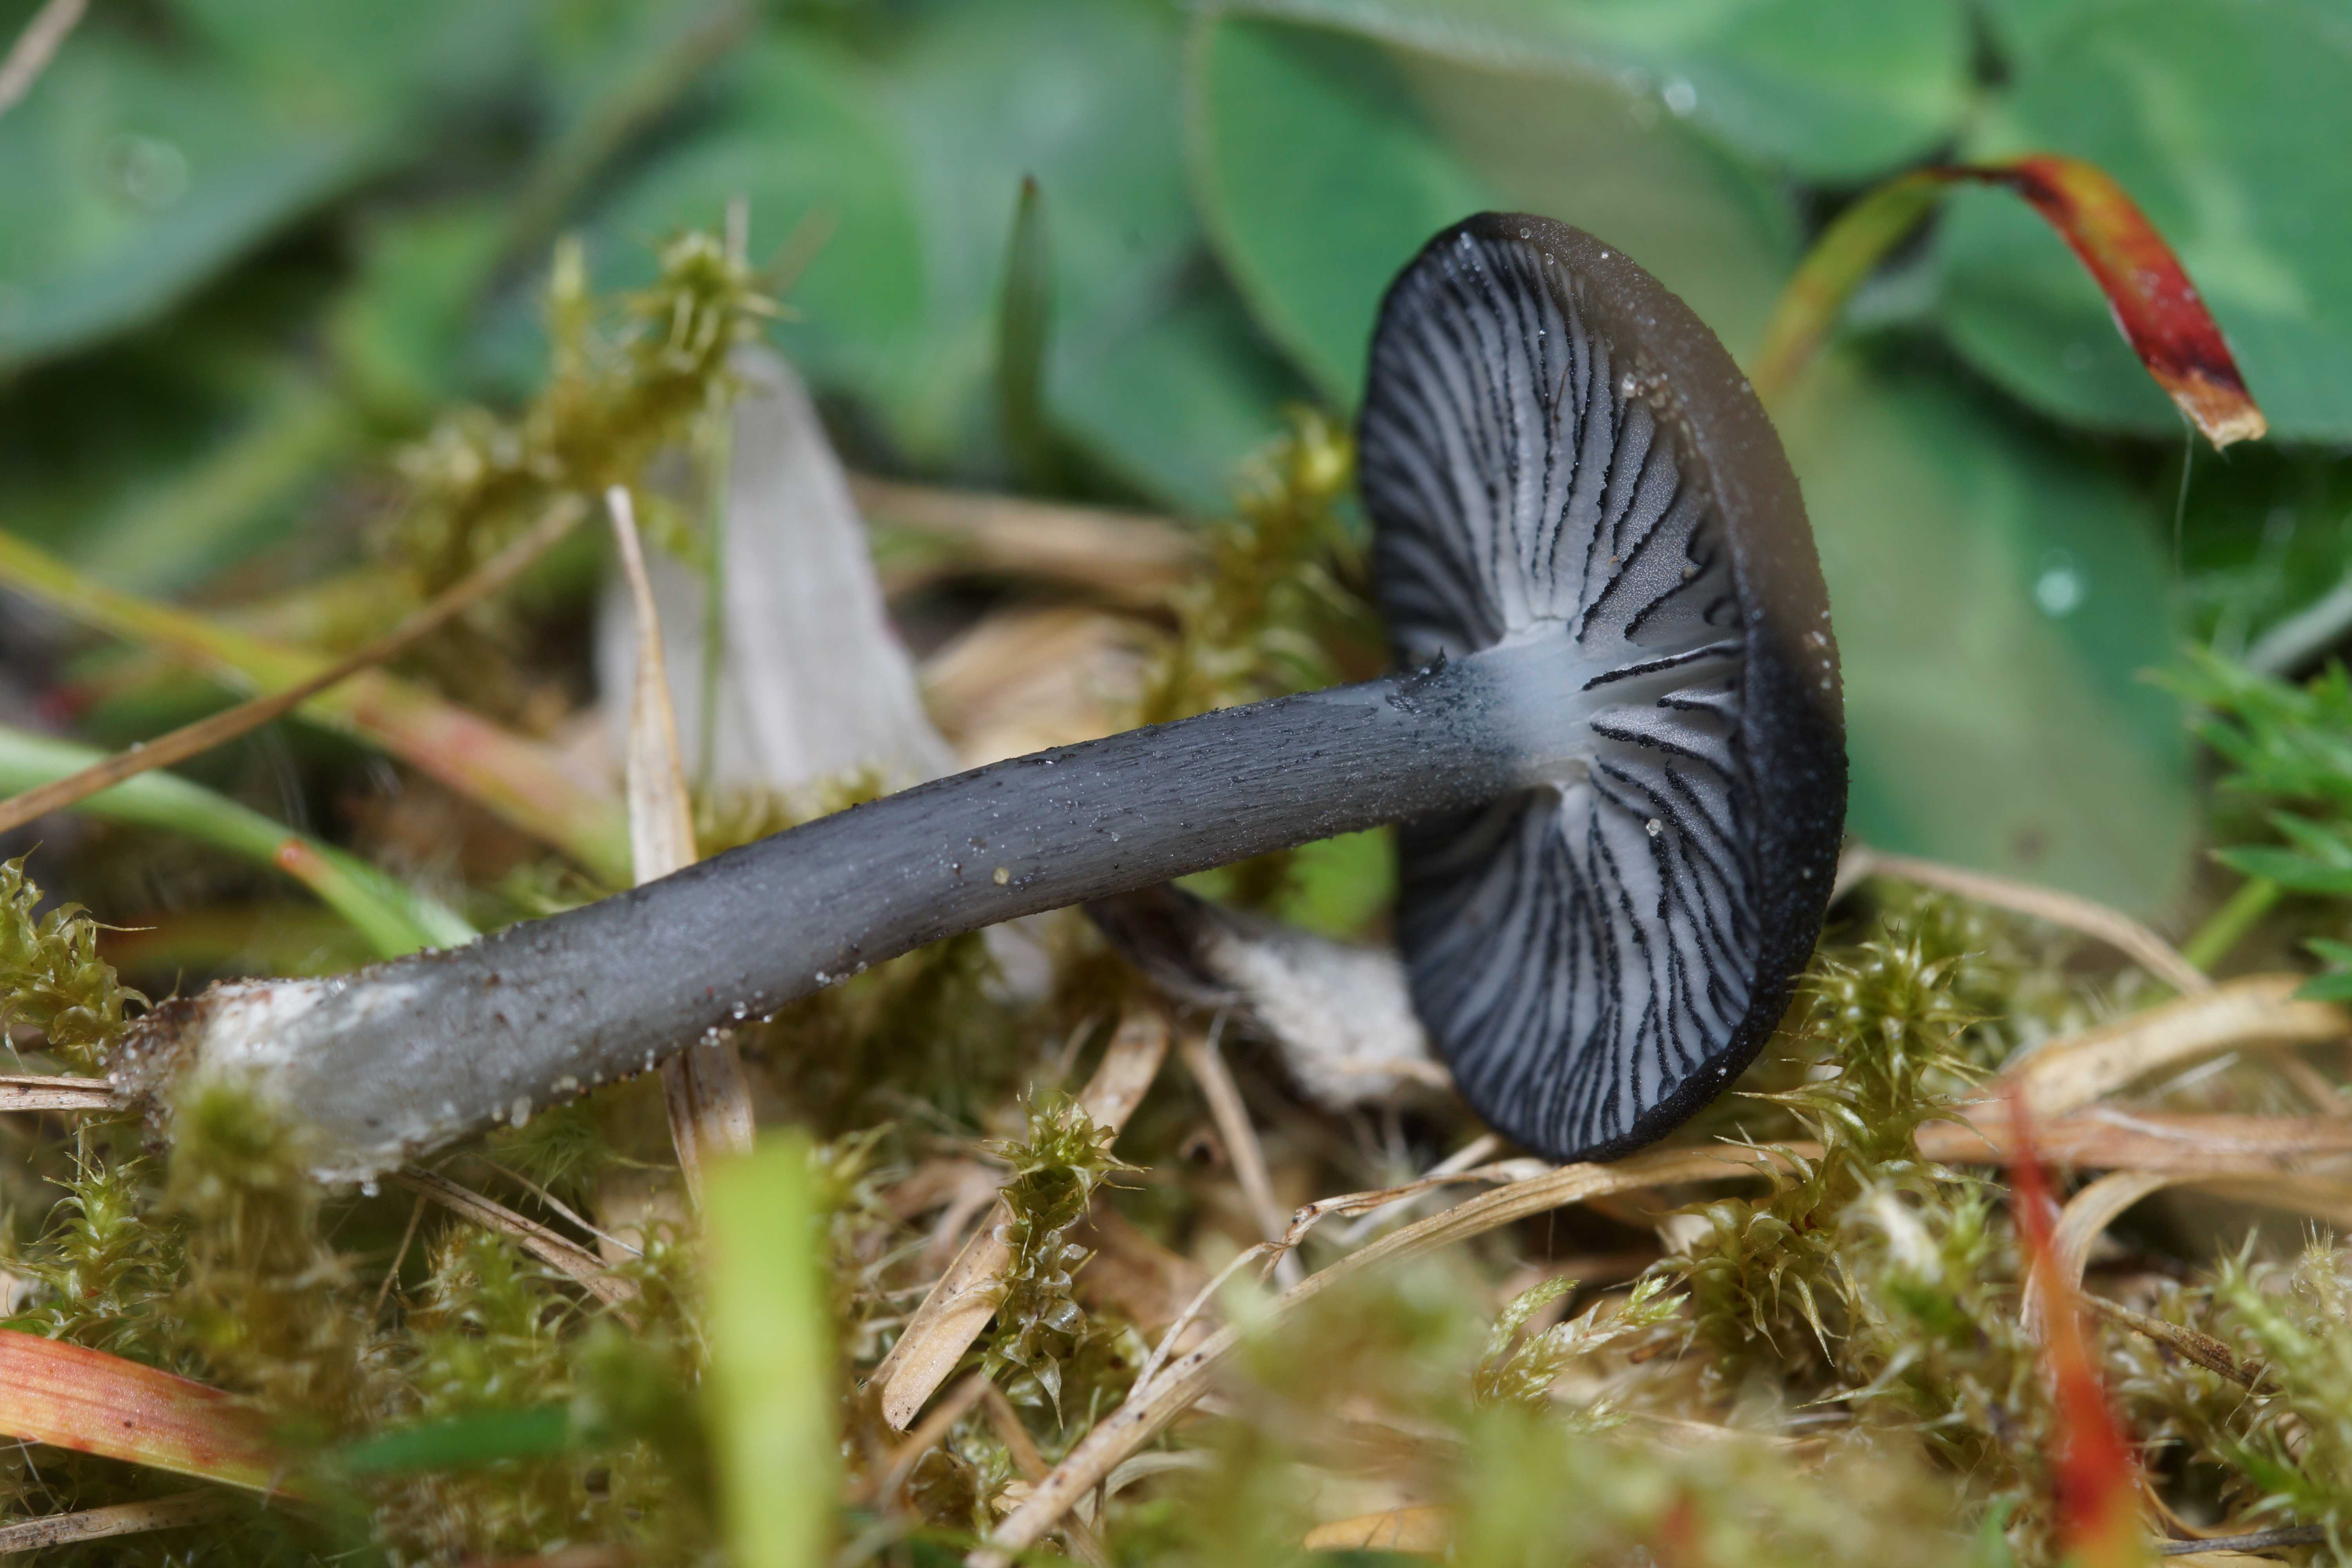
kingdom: Fungi
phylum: Basidiomycota
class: Agaricomycetes
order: Agaricales
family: Entolomataceae
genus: Entoloma
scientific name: Entoloma
